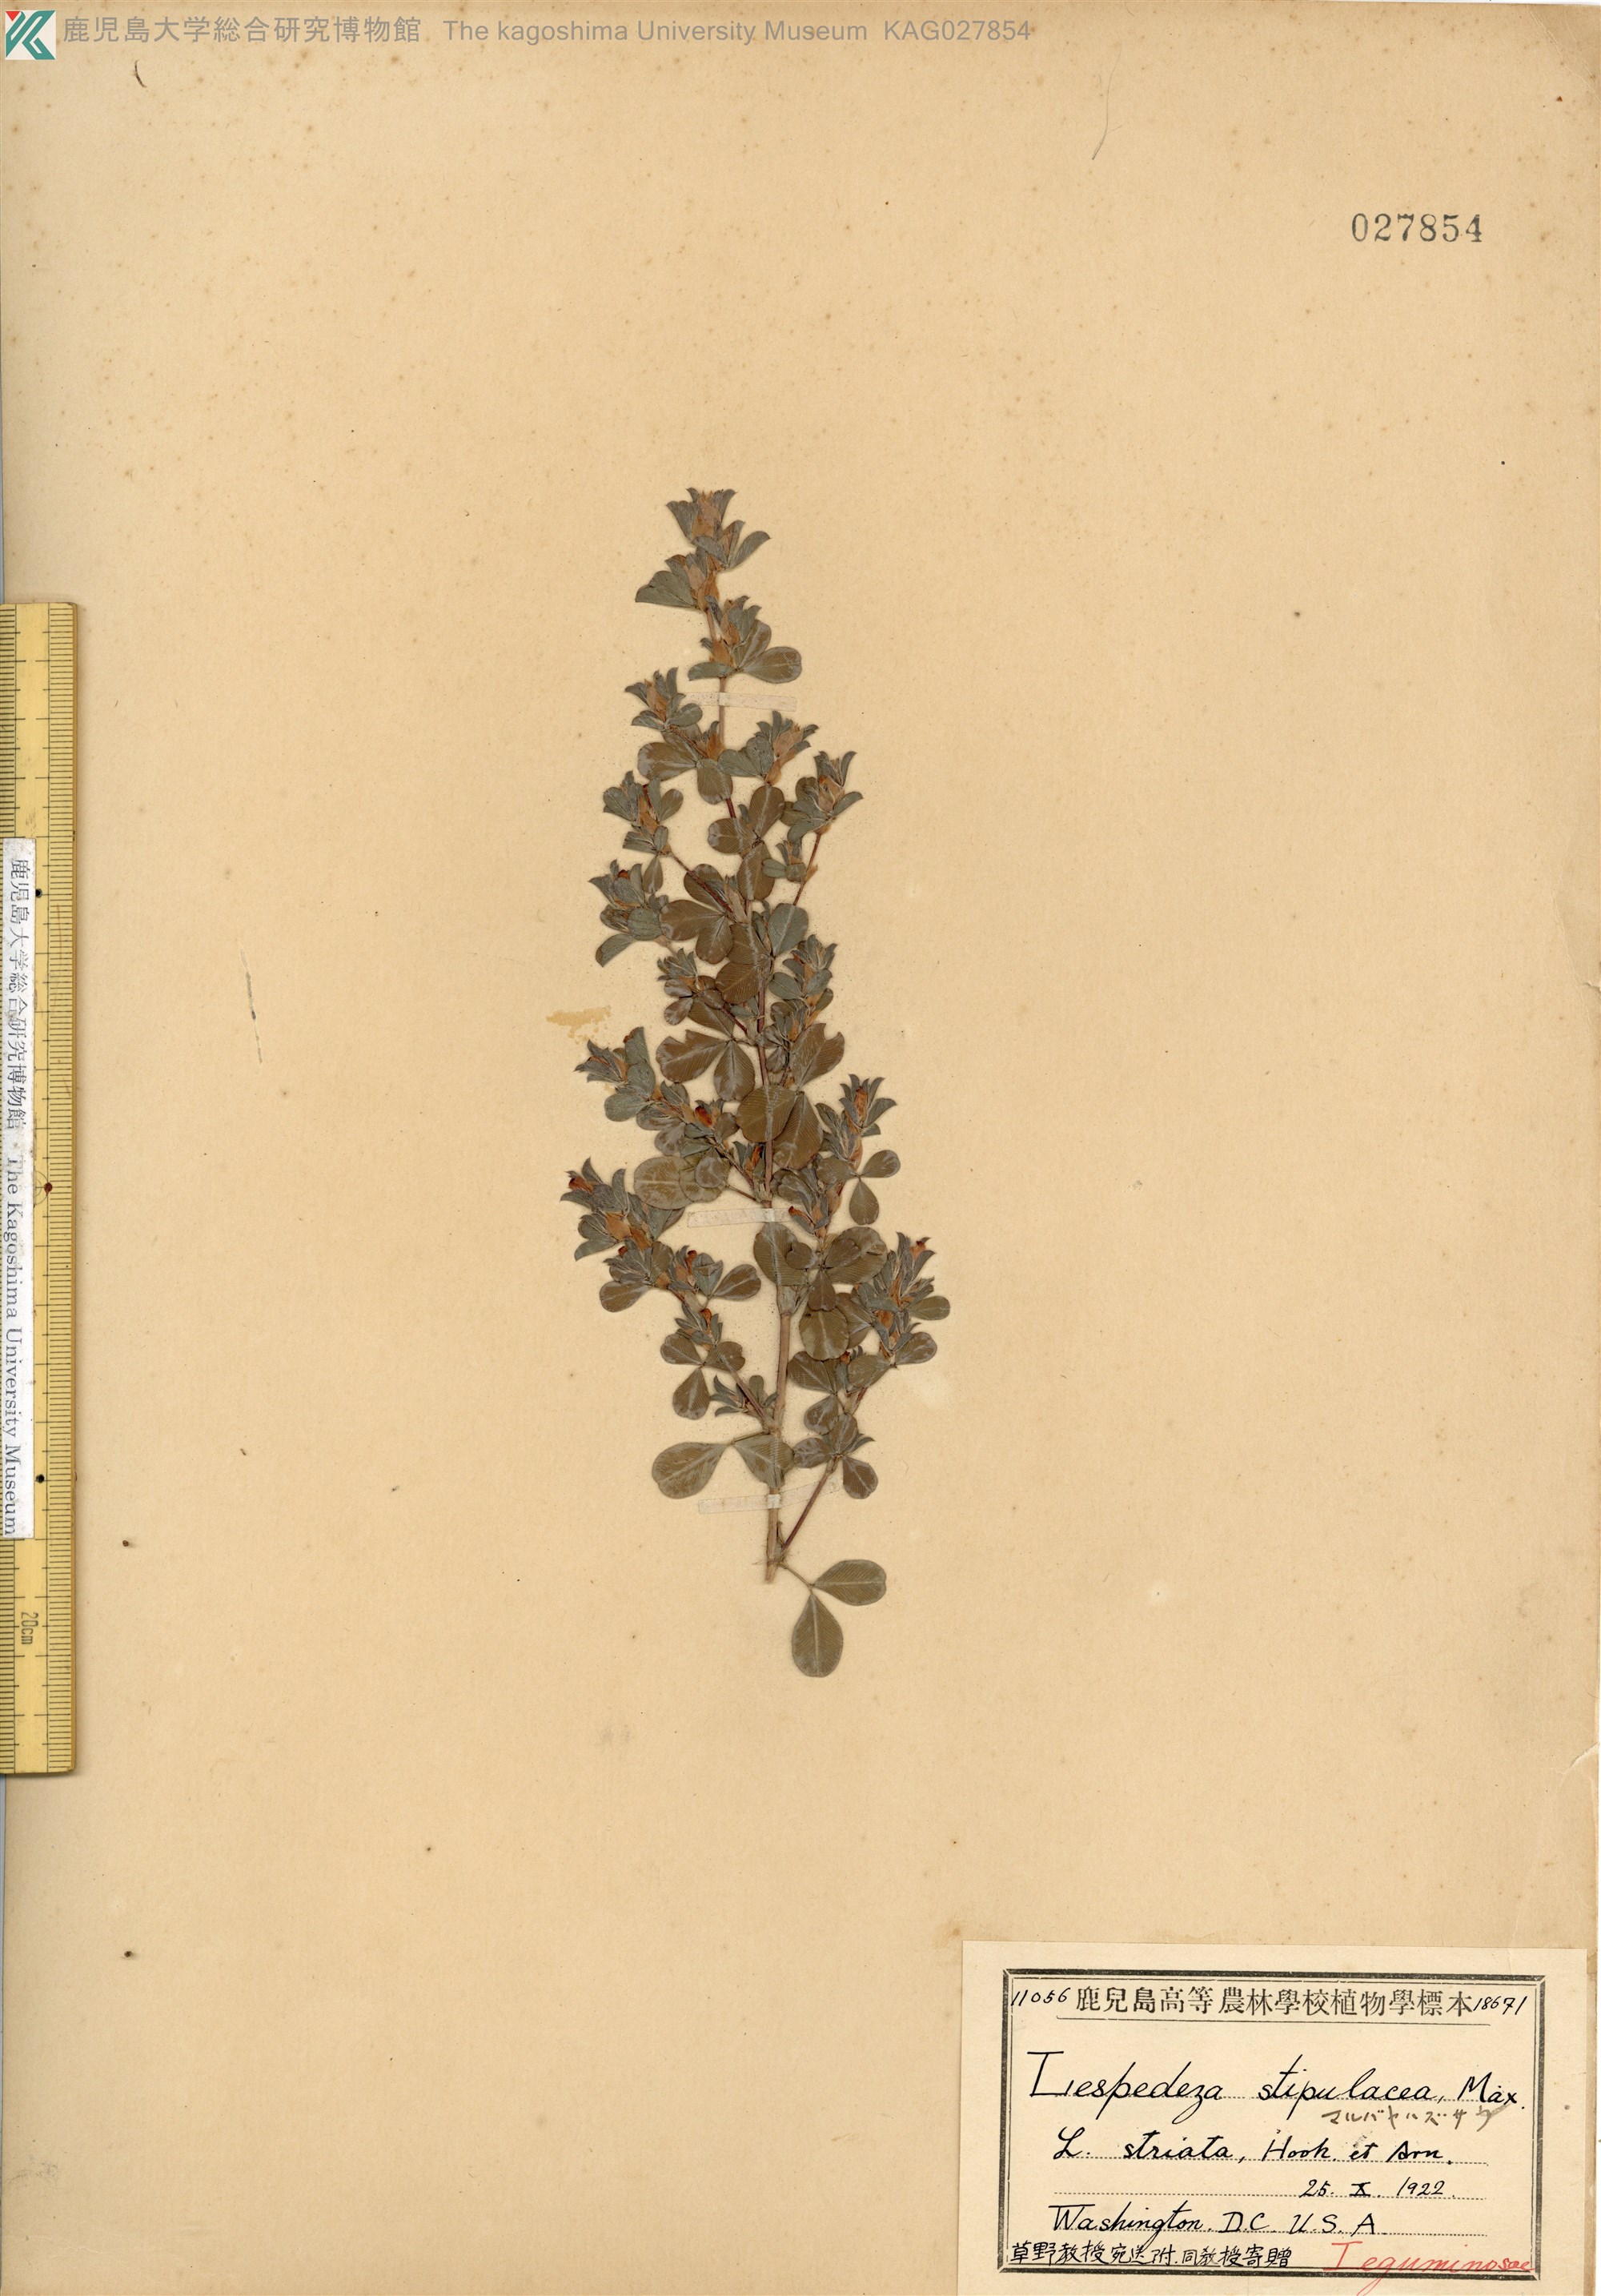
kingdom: Plantae
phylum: Tracheophyta
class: Magnoliopsida
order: Fabales
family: Fabaceae
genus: Kummerowia
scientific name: Kummerowia stipulacea
